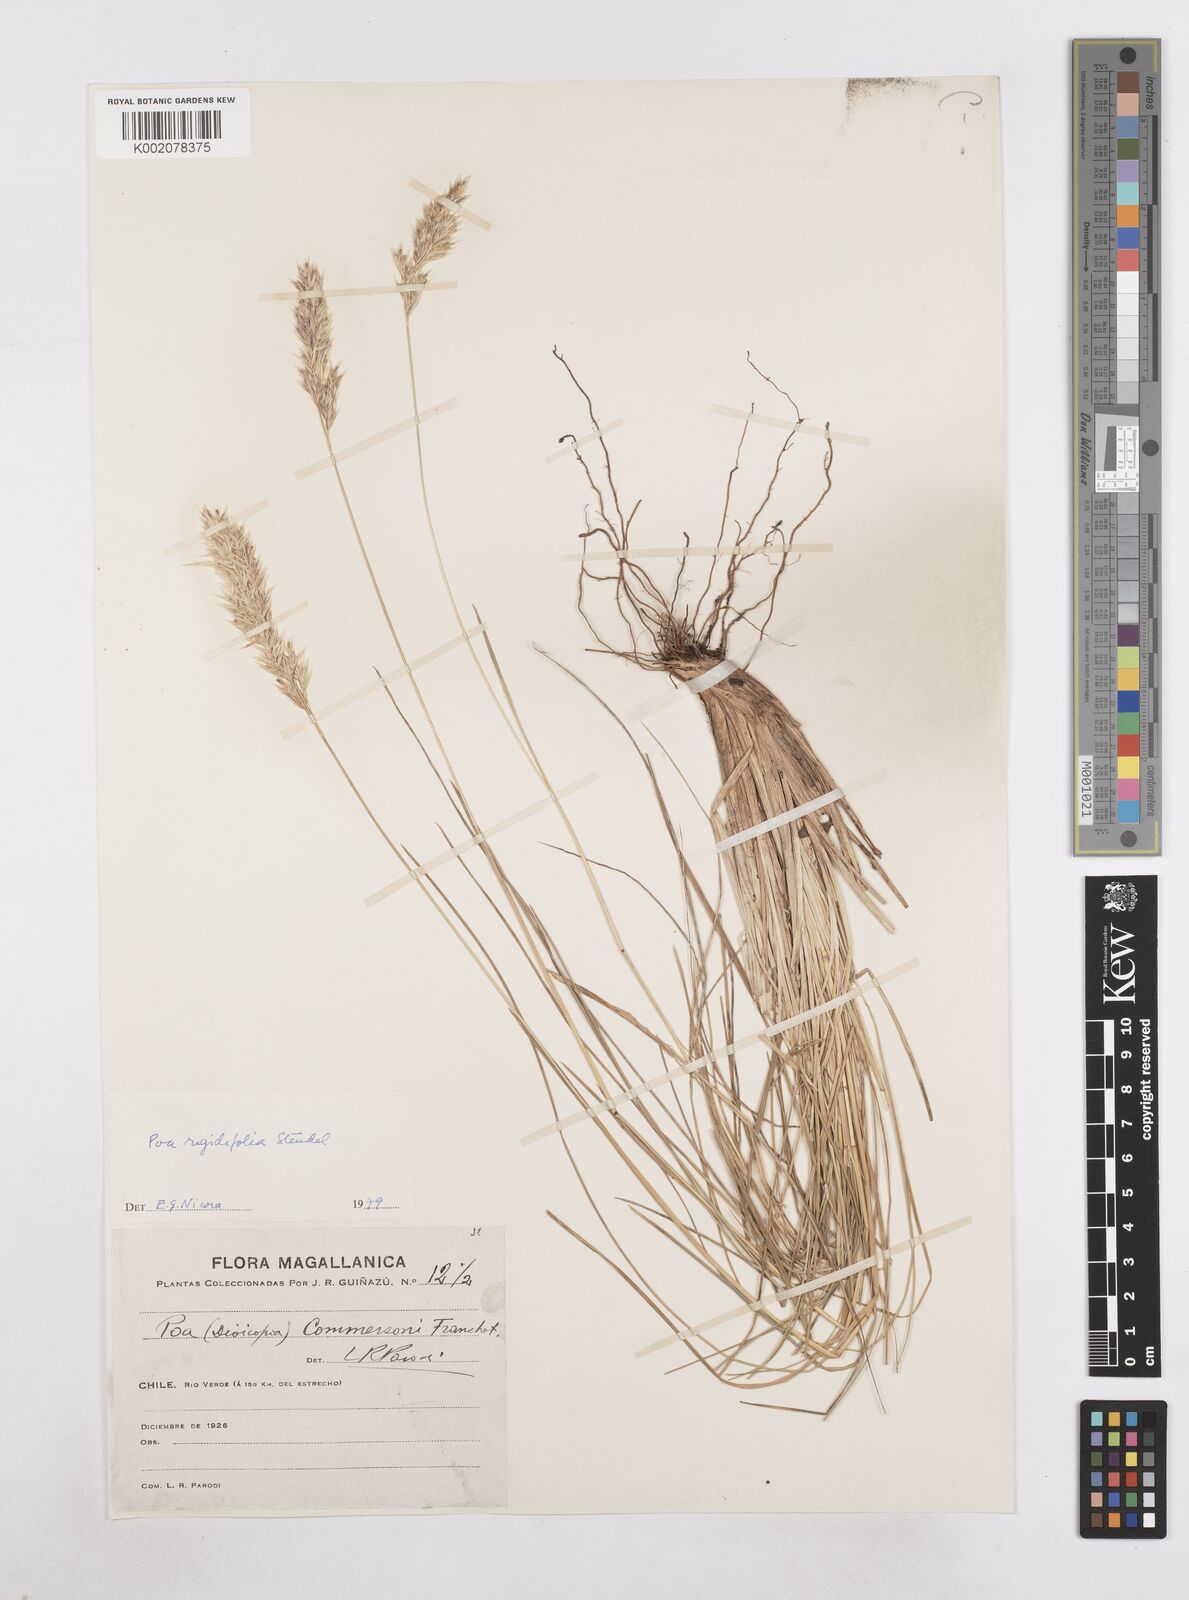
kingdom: Plantae
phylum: Tracheophyta
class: Liliopsida
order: Poales
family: Poaceae
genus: Poa
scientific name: Poa alopecurus
